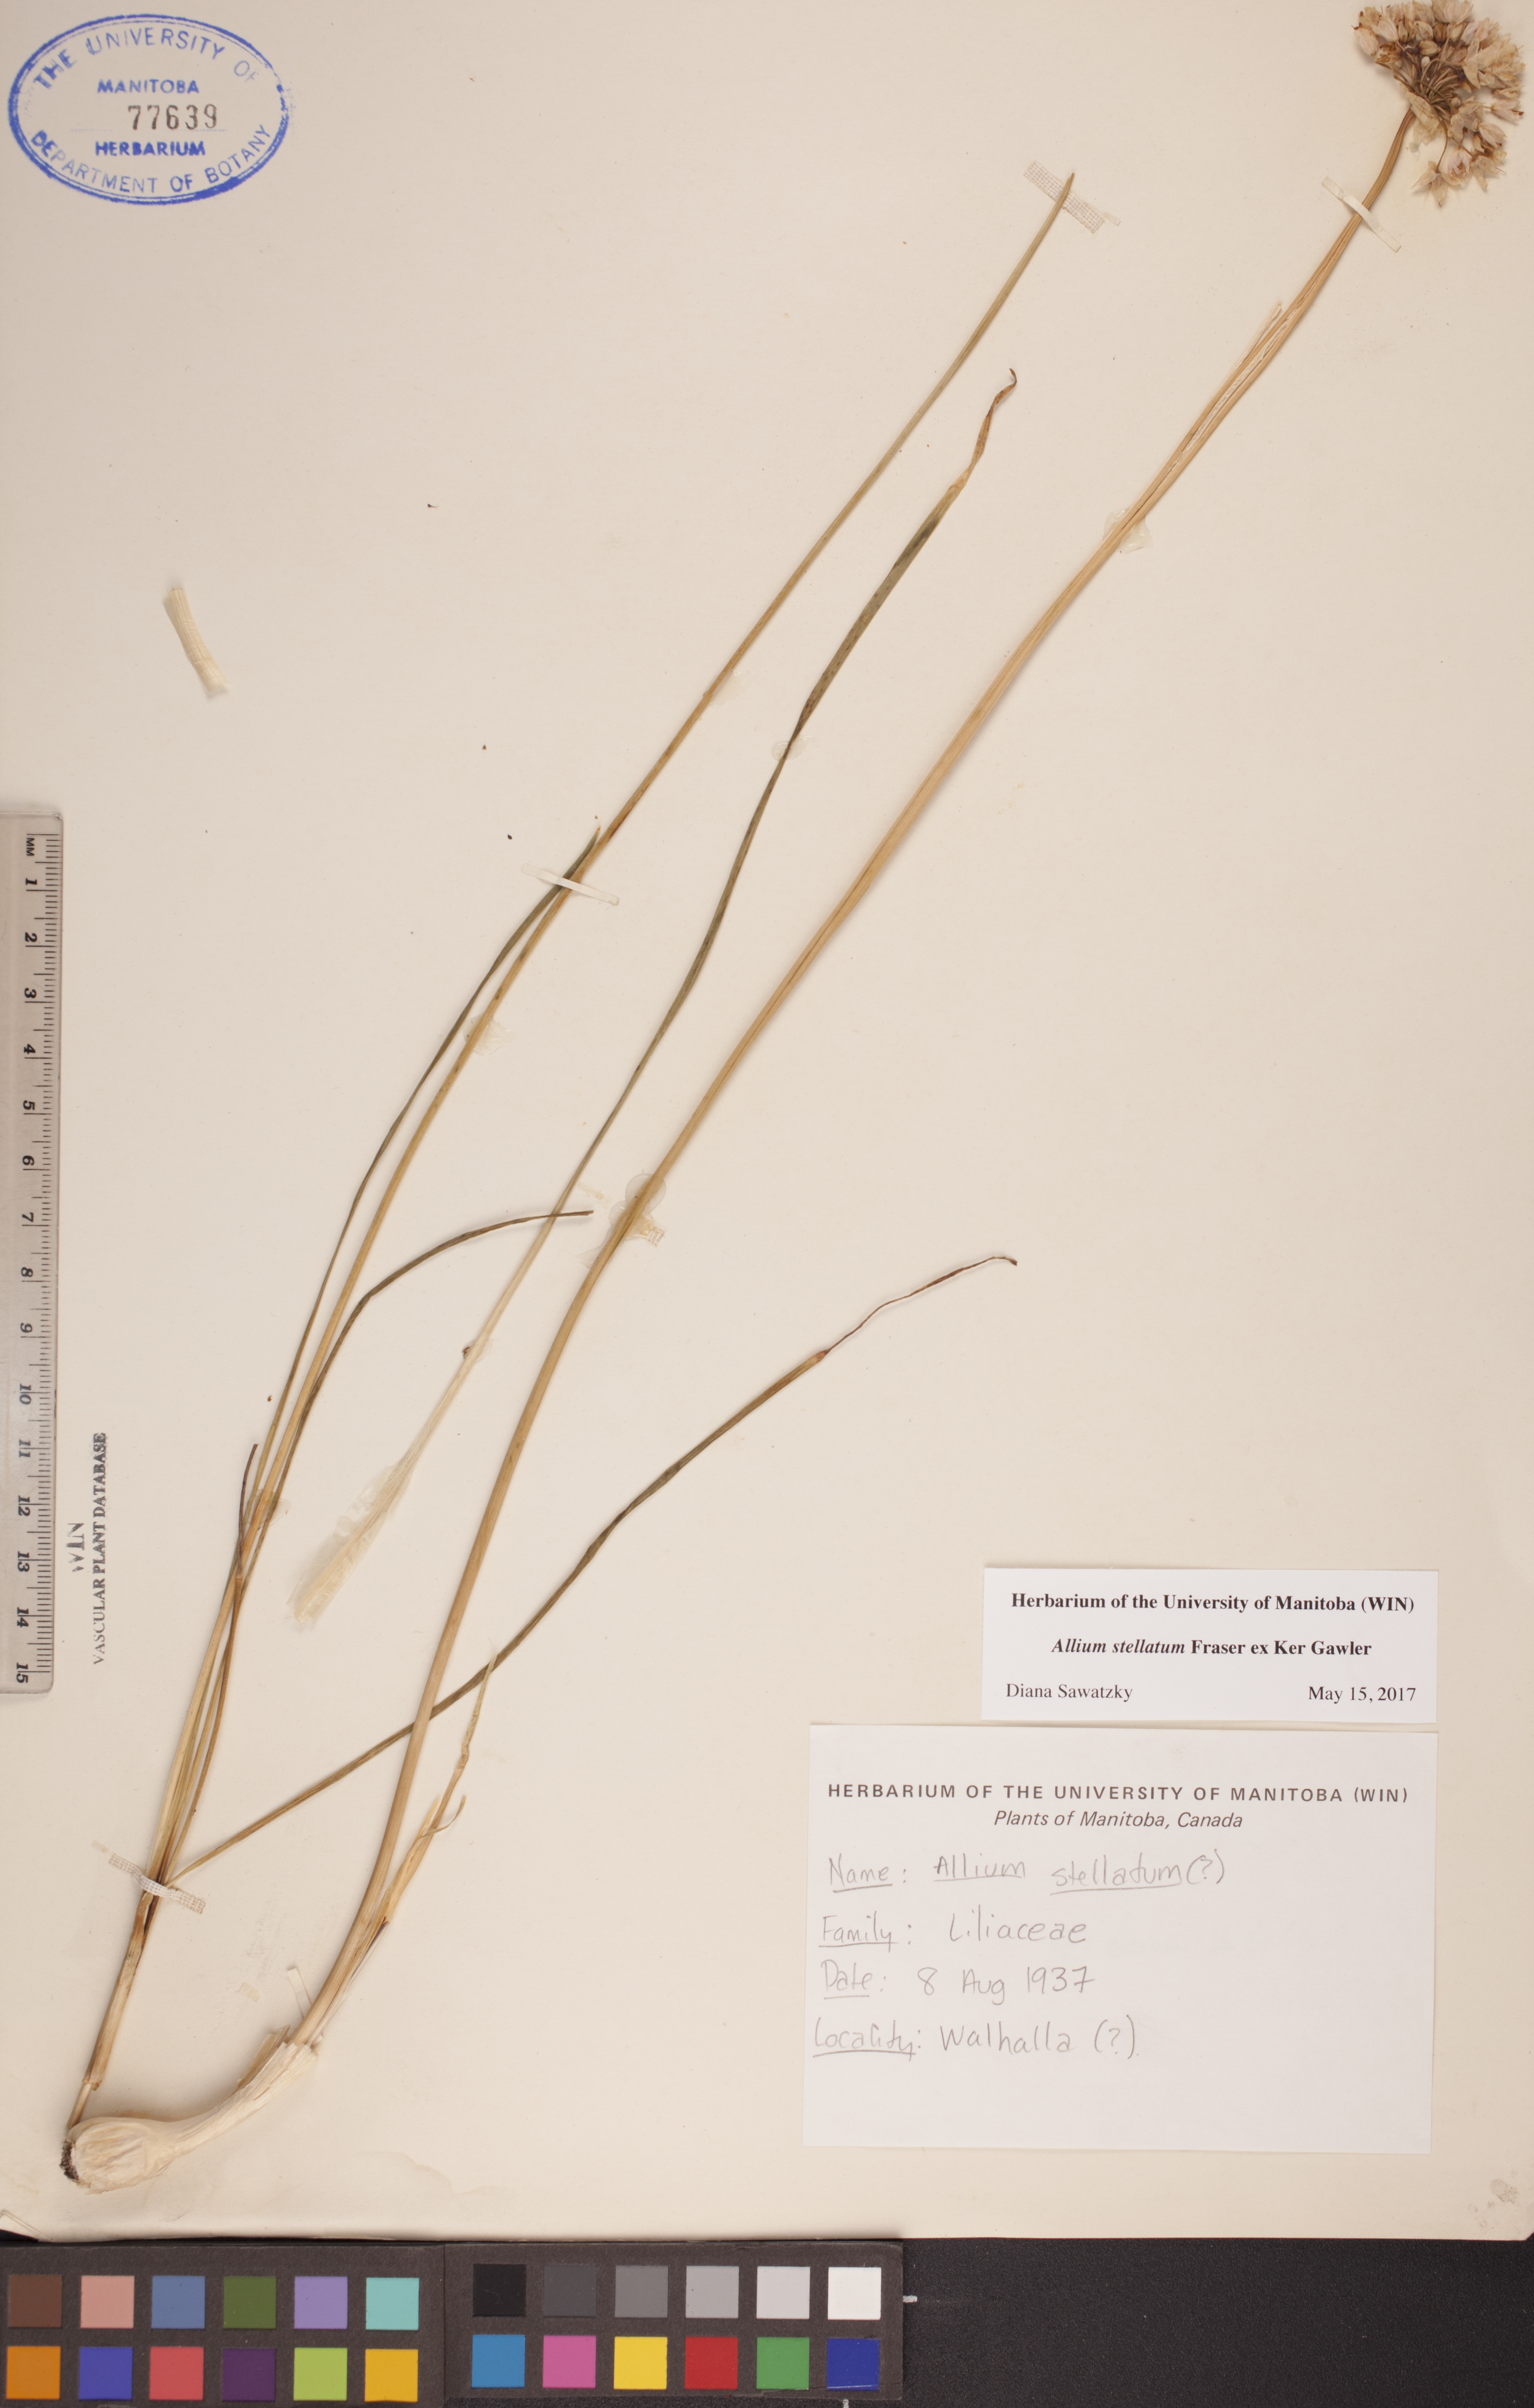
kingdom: Plantae
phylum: Tracheophyta
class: Liliopsida
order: Asparagales
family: Amaryllidaceae
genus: Allium
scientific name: Allium stellatum
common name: Autumn onion
